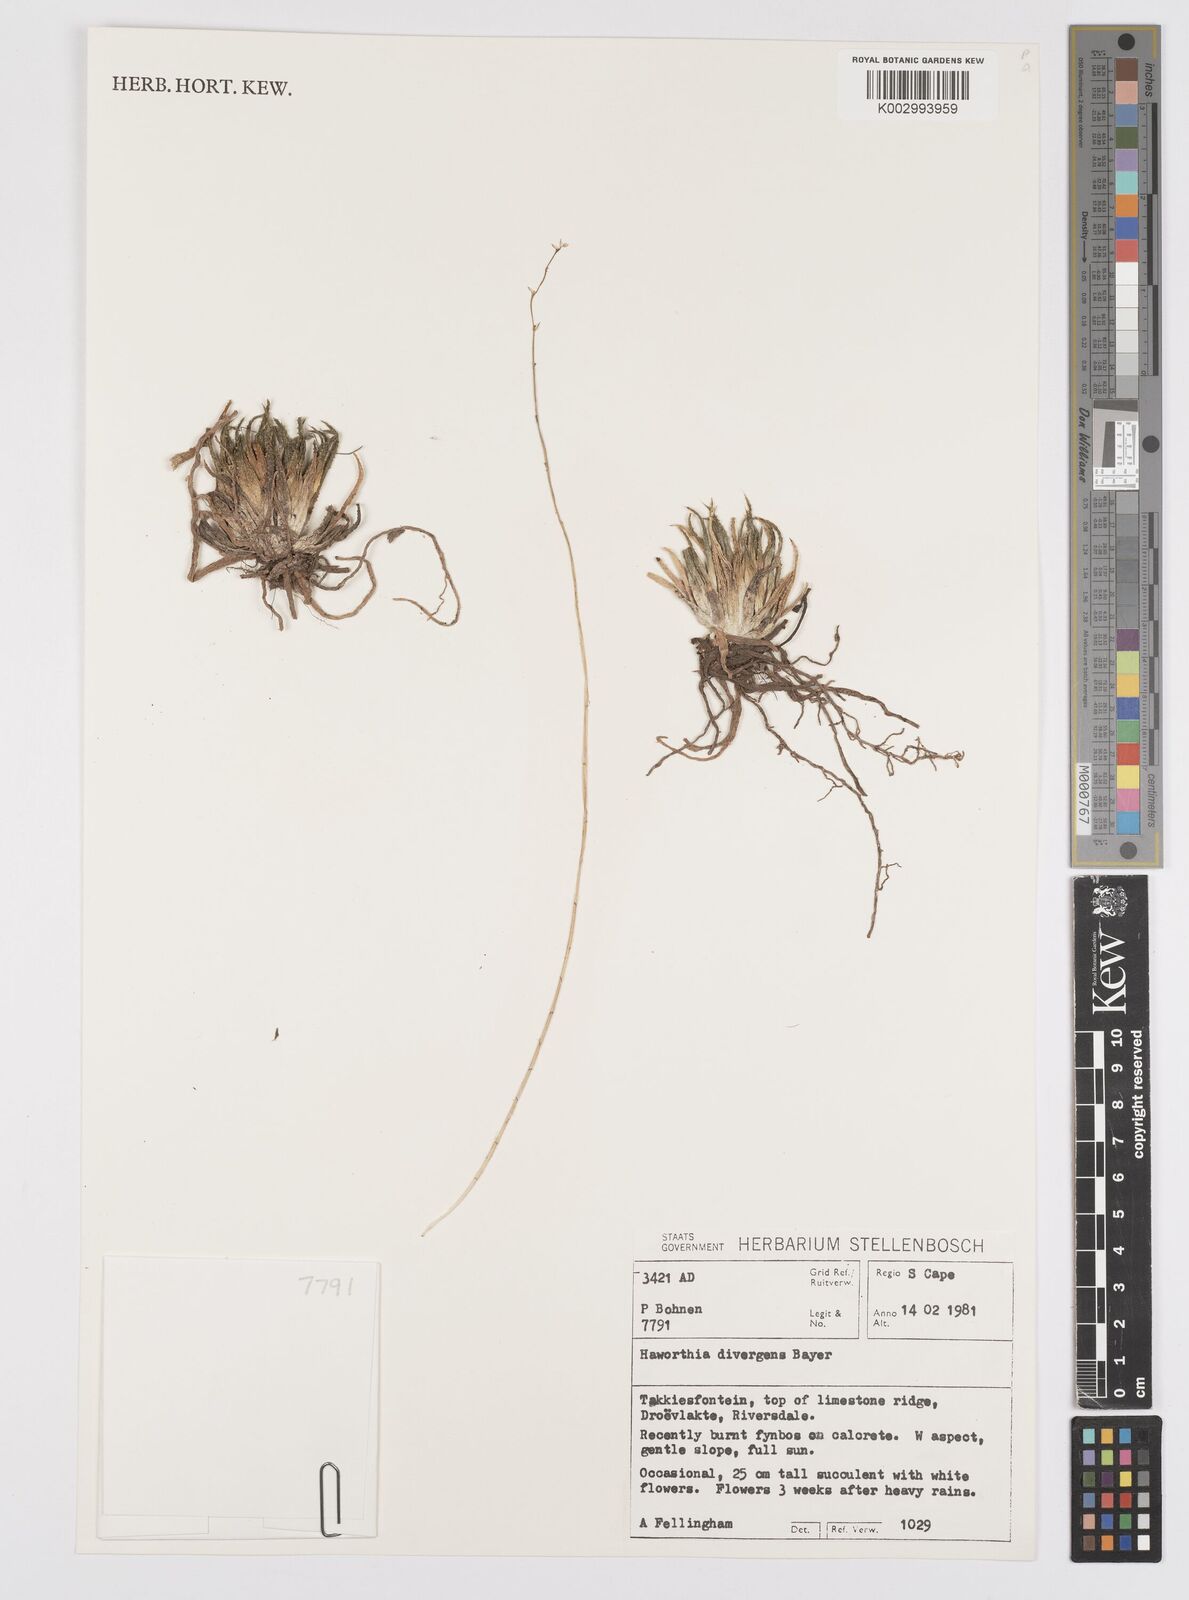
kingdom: Plantae
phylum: Tracheophyta
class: Liliopsida
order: Asparagales
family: Asphodelaceae
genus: Haworthia
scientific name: Haworthia monticola
